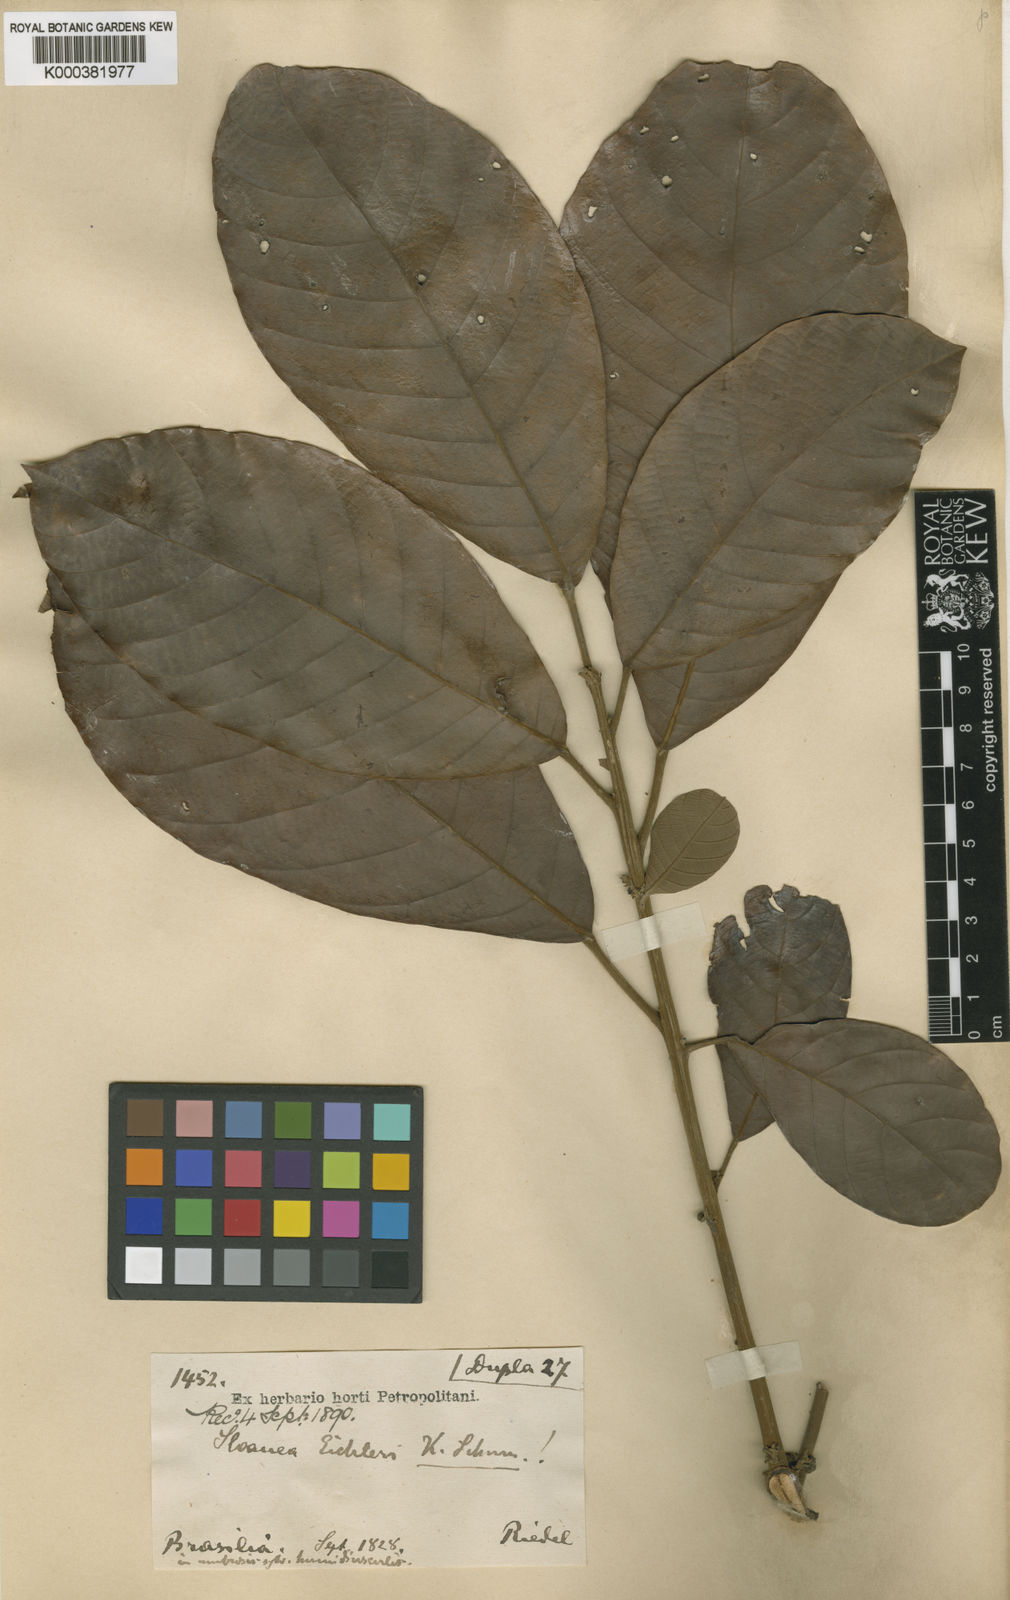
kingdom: Plantae
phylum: Tracheophyta
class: Magnoliopsida
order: Oxalidales
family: Elaeocarpaceae
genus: Sloanea
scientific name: Sloanea eichleri
